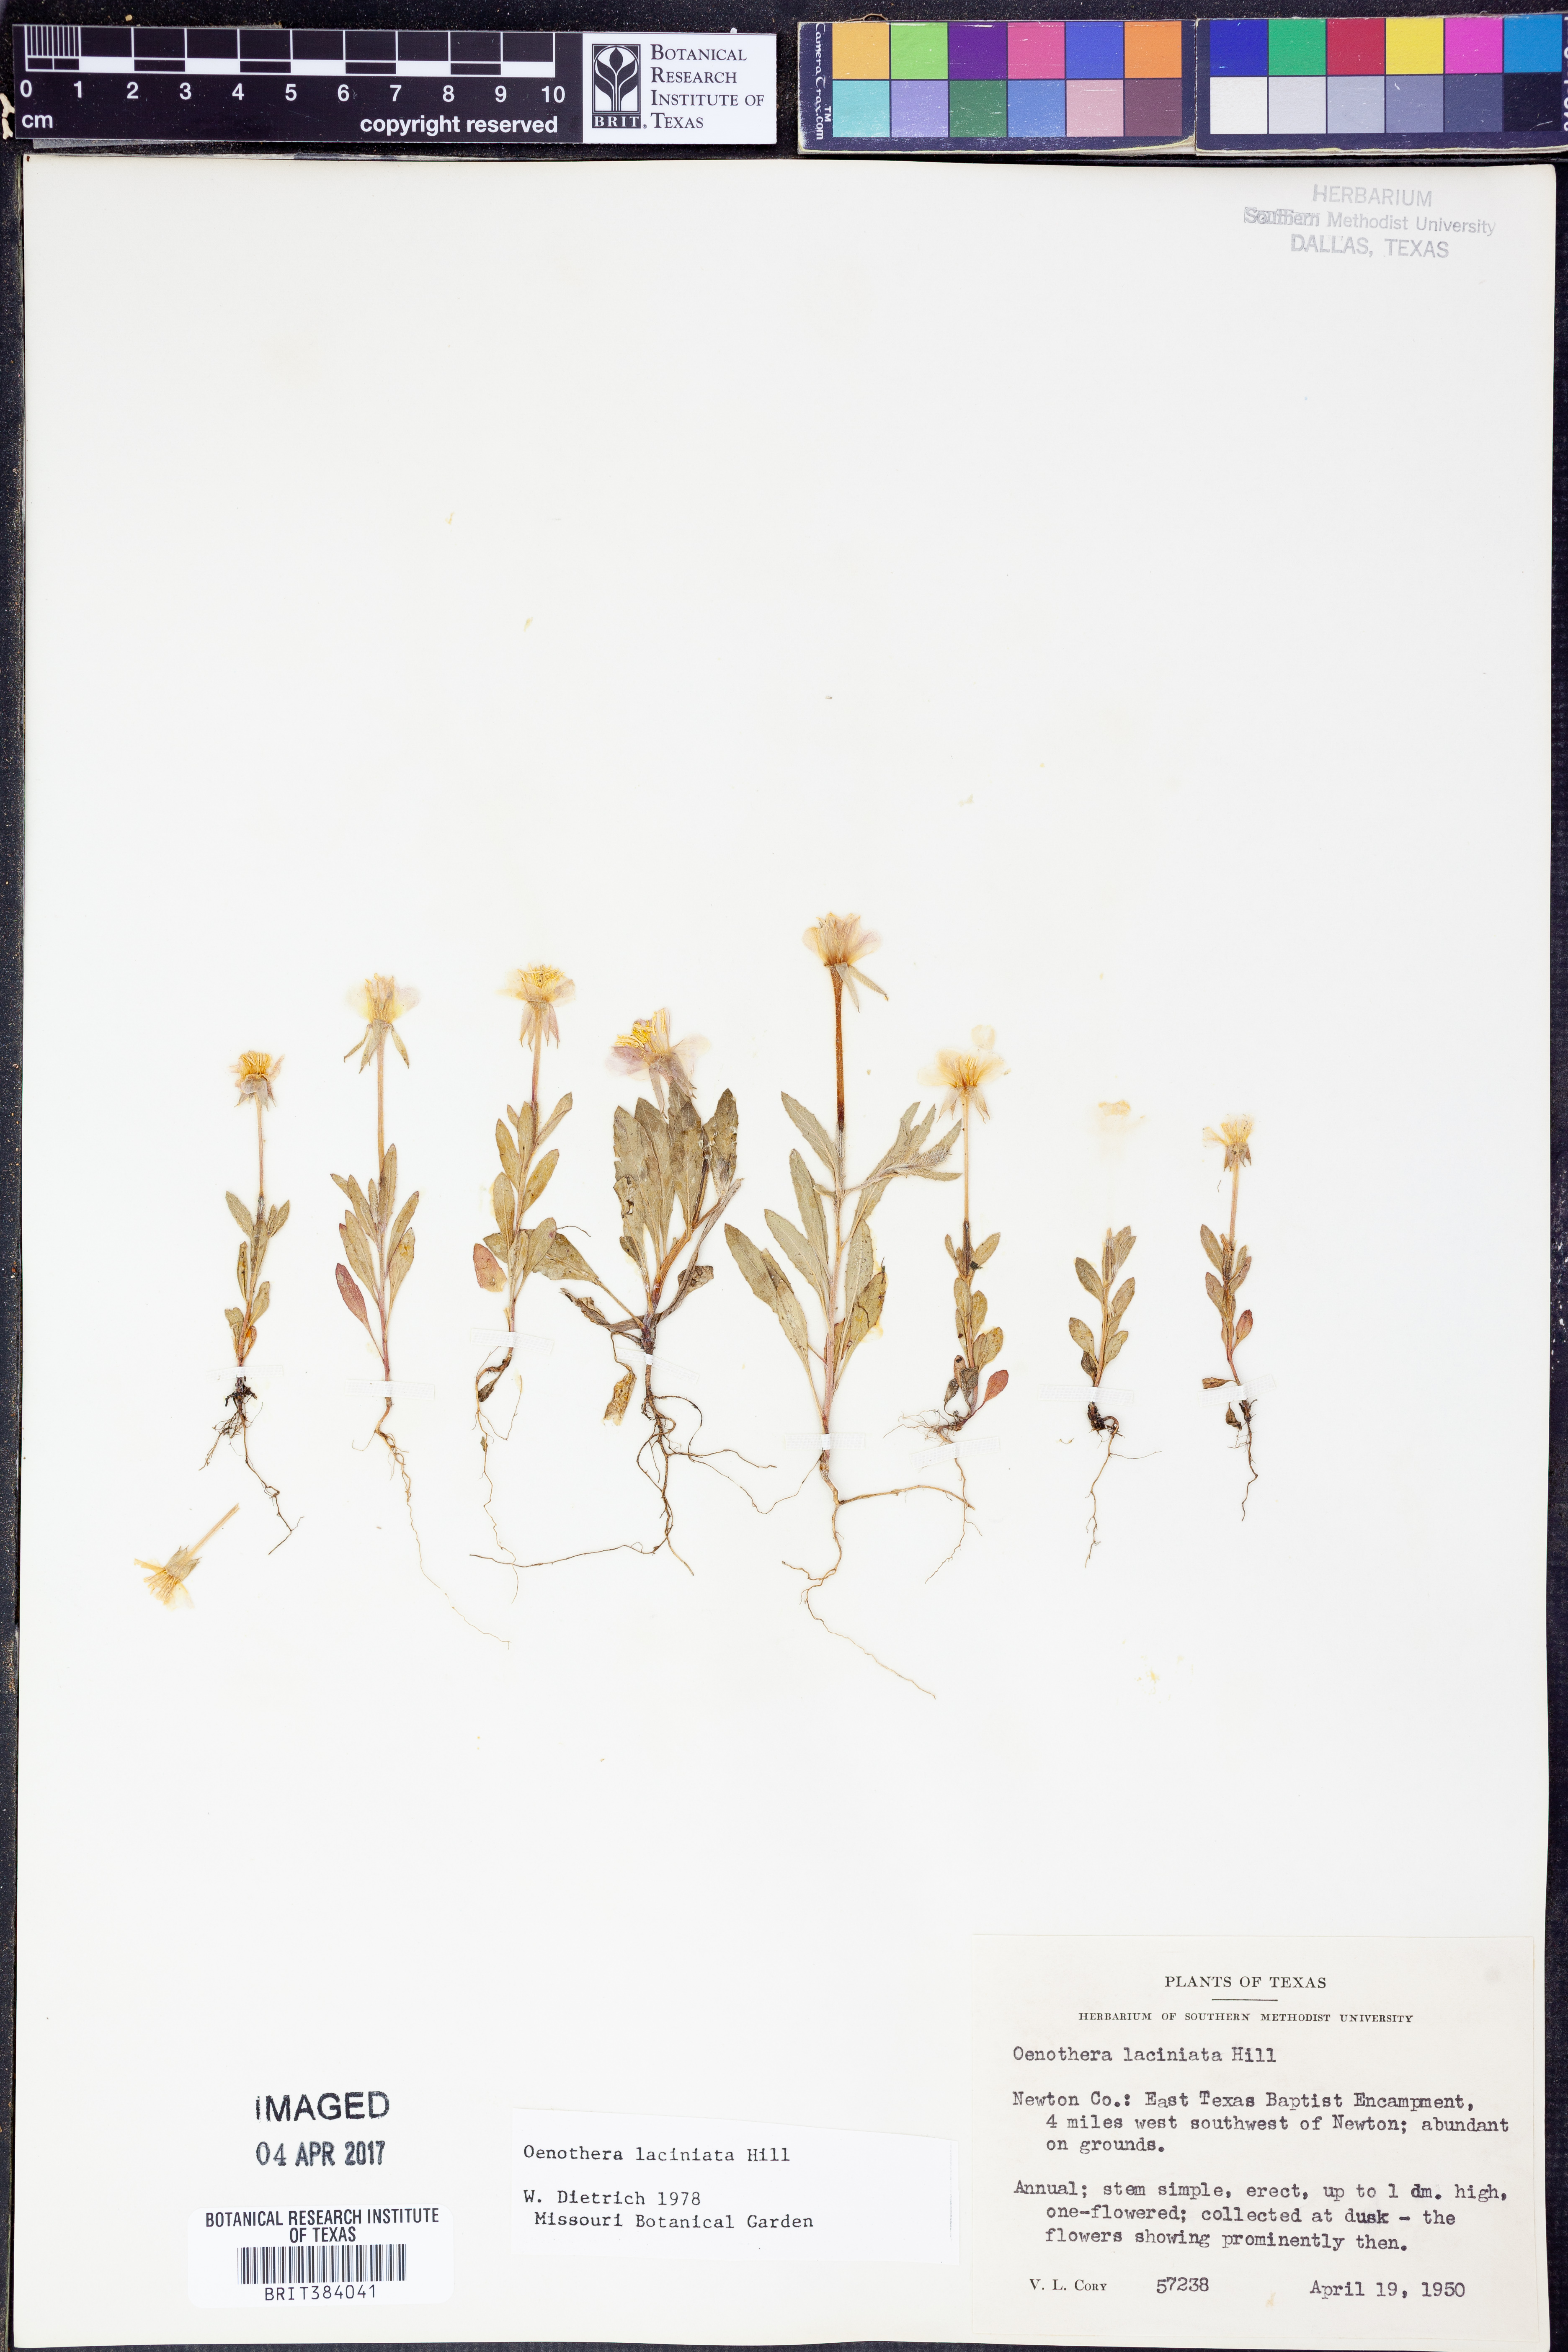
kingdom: Plantae
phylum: Tracheophyta
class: Magnoliopsida
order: Myrtales
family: Onagraceae
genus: Oenothera
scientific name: Oenothera laciniata
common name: Cut-leaved evening-primrose
